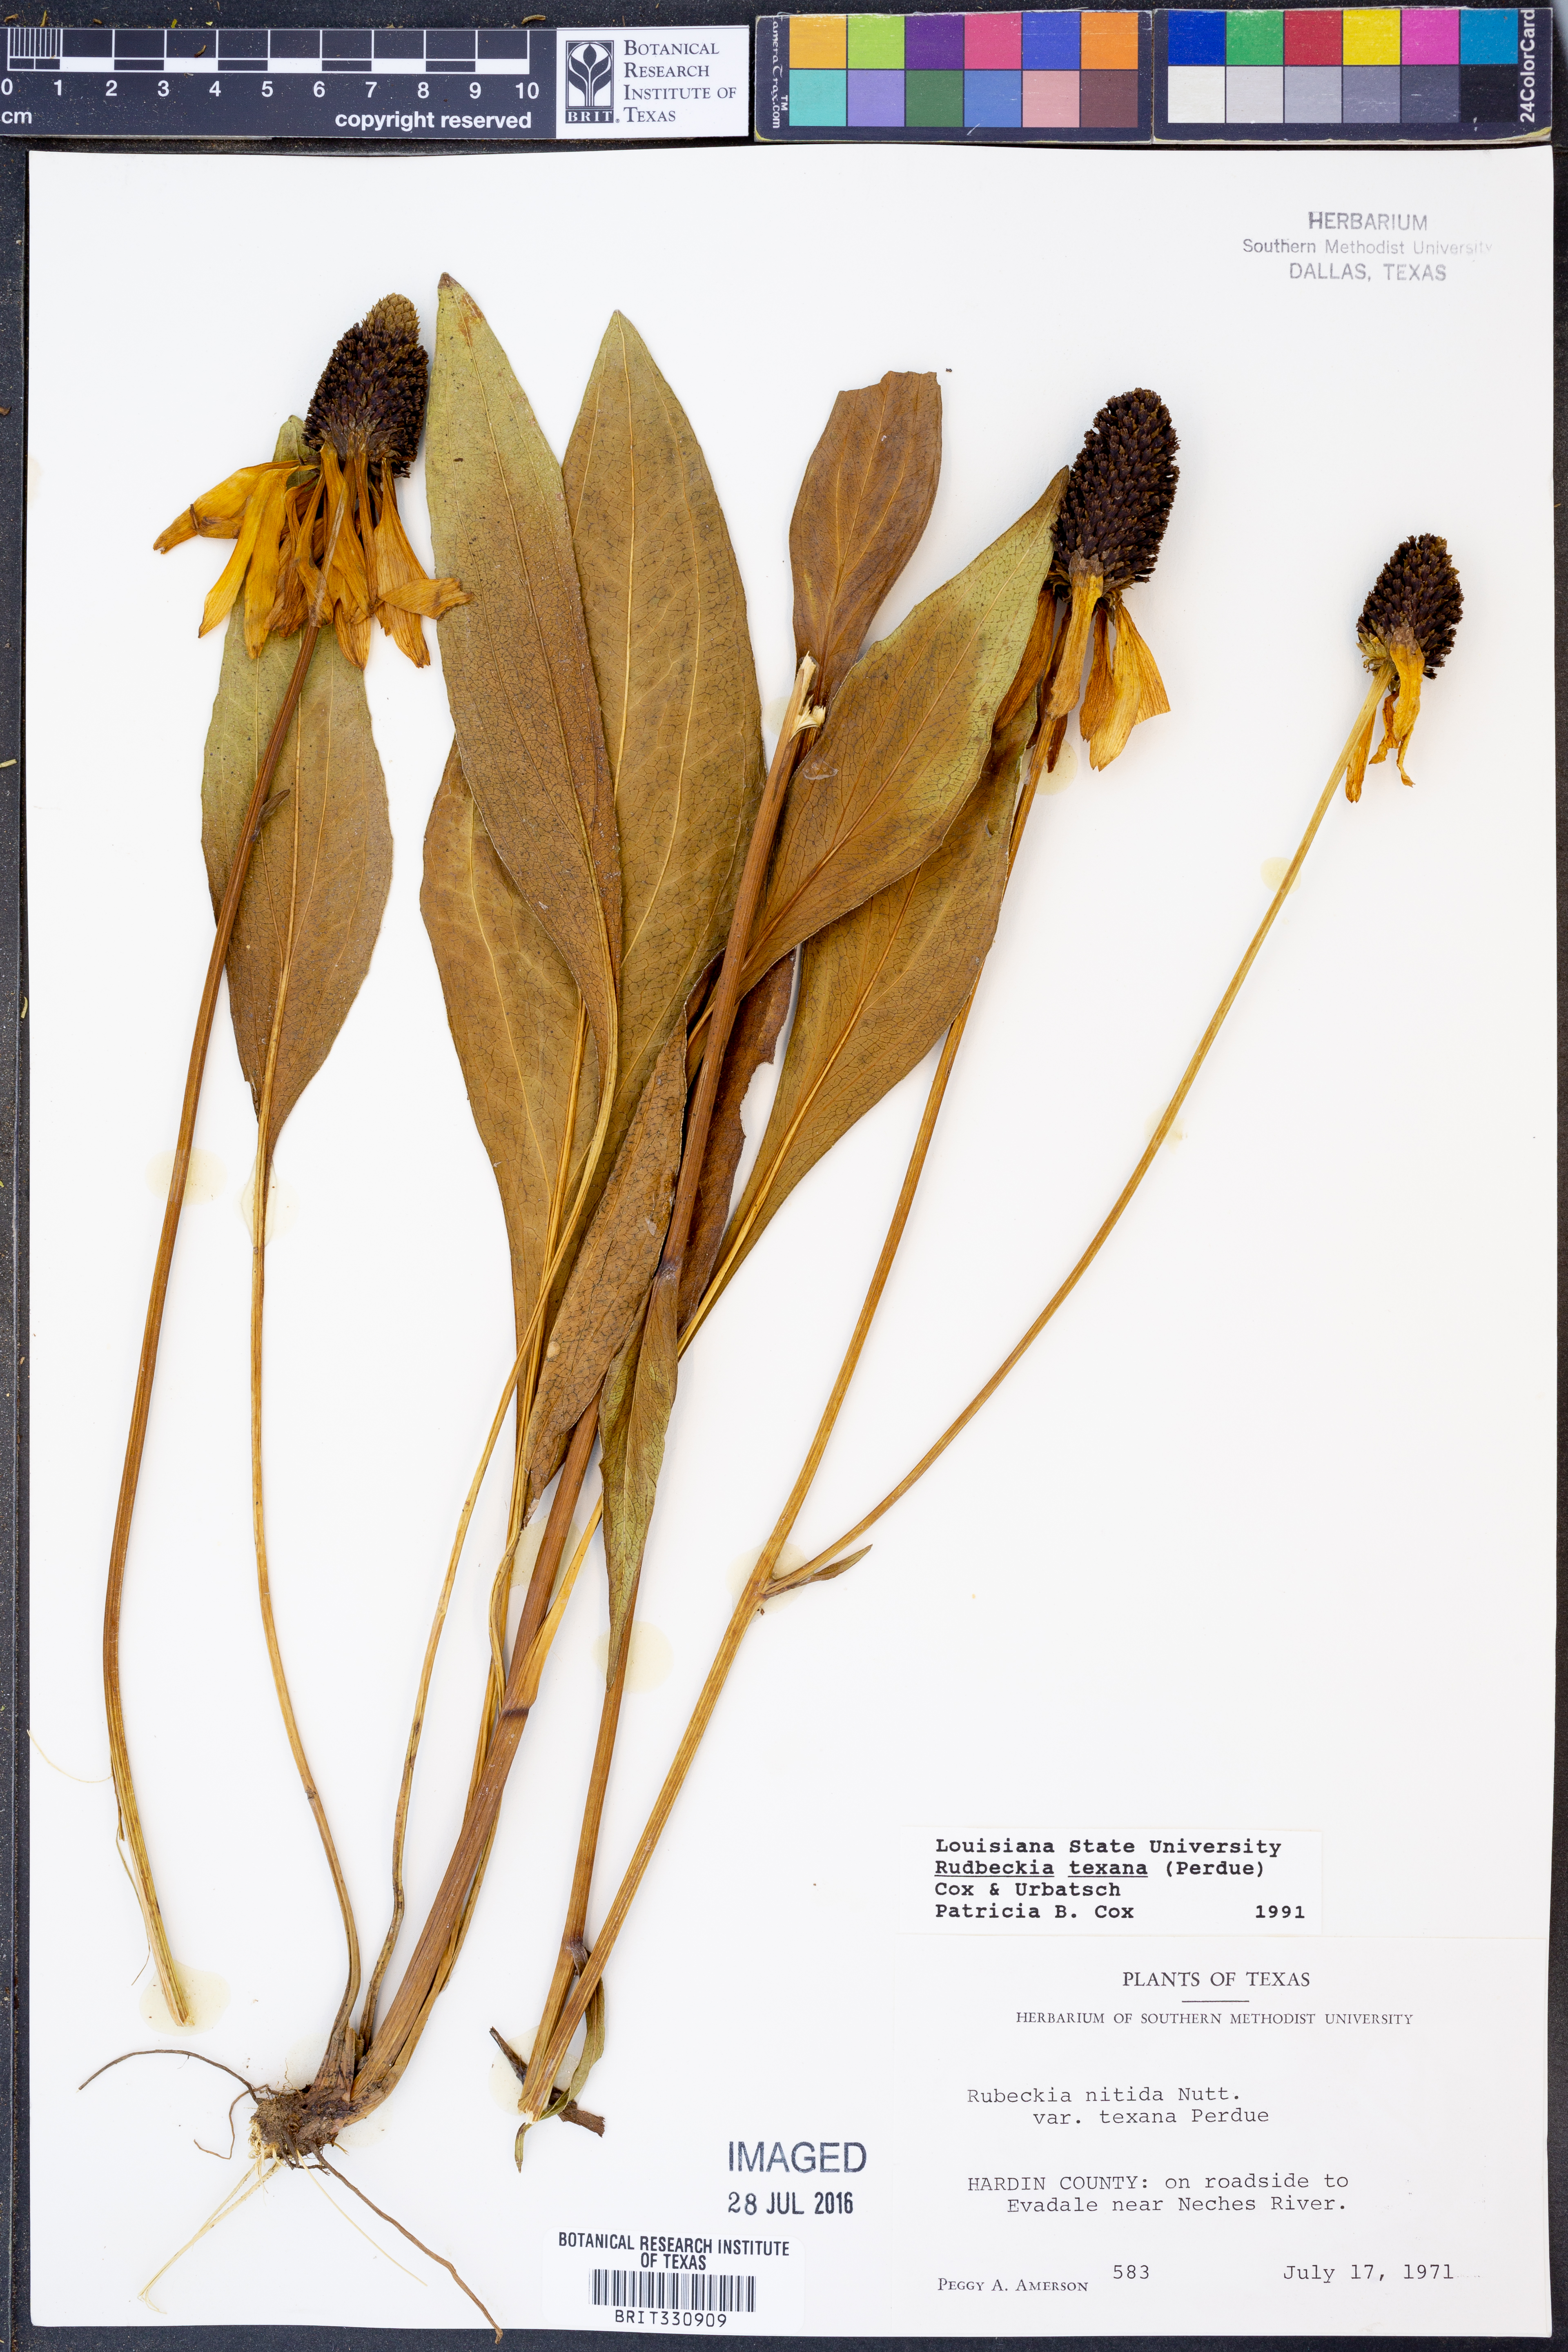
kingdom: Plantae
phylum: Tracheophyta
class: Magnoliopsida
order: Asterales
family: Asteraceae
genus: Rudbeckia
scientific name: Rudbeckia texana
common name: Texas coneflower
